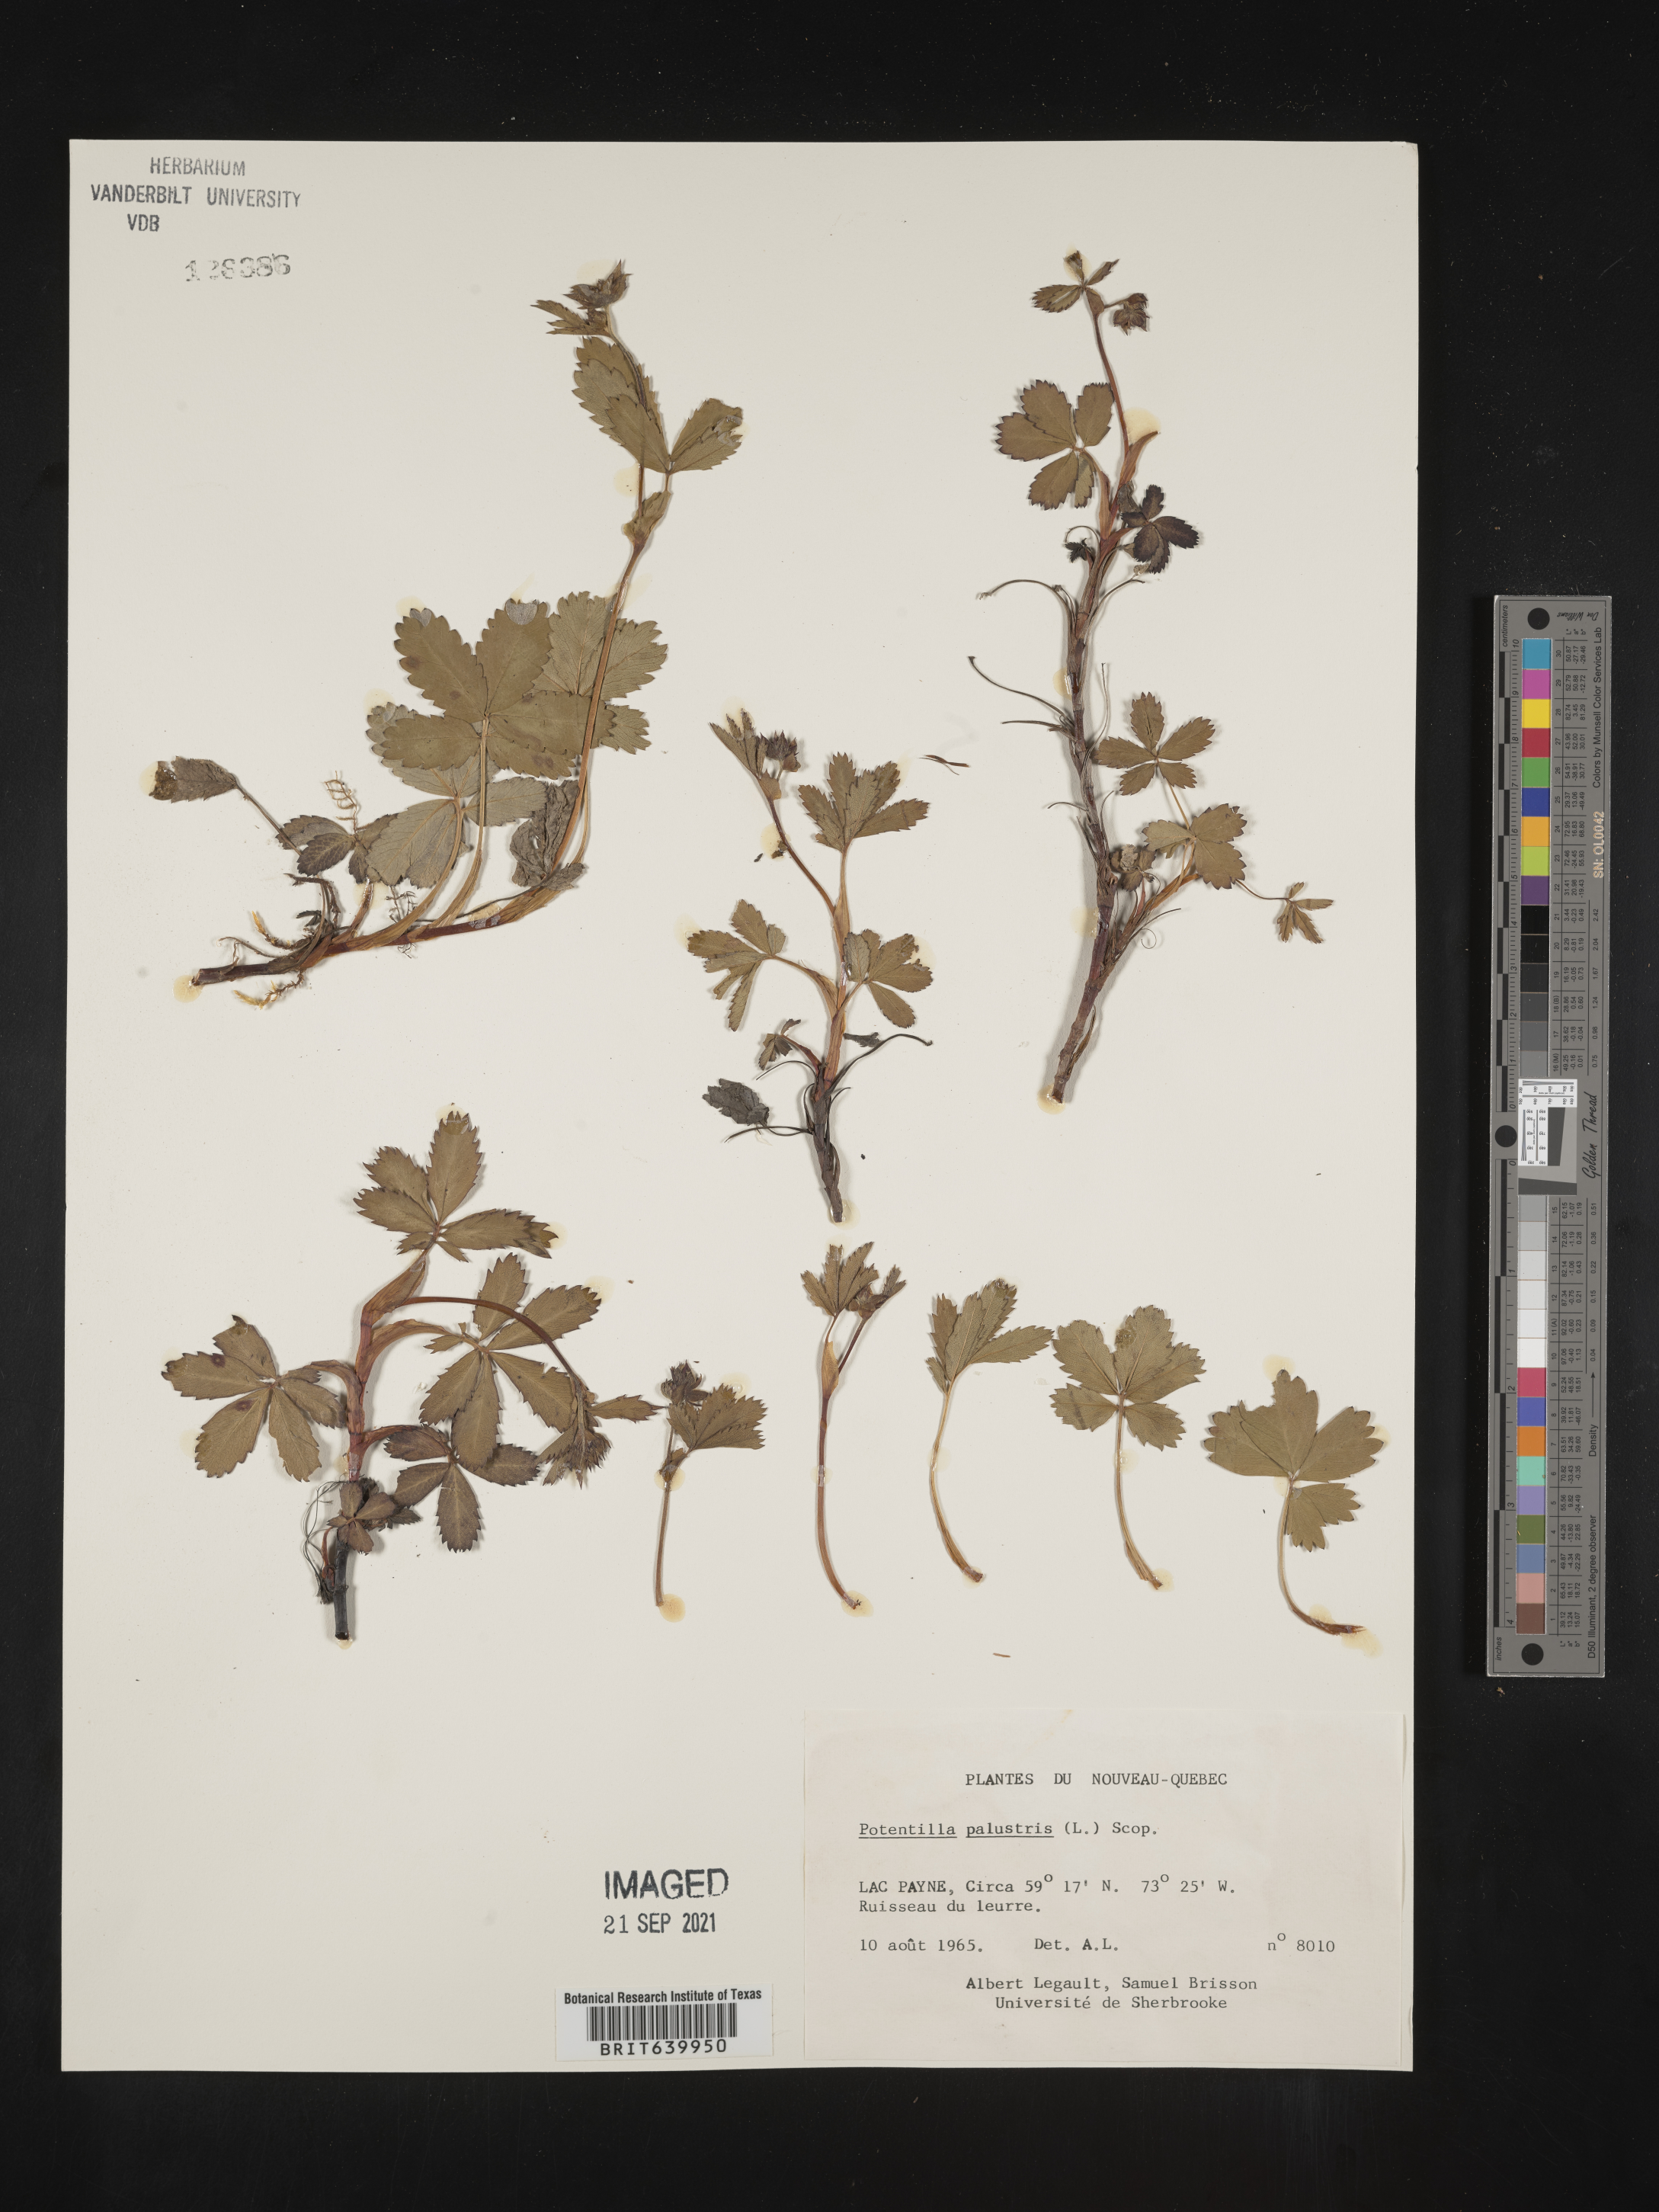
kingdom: Plantae
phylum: Tracheophyta
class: Magnoliopsida
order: Rosales
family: Rosaceae
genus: Potentilla
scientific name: Potentilla
